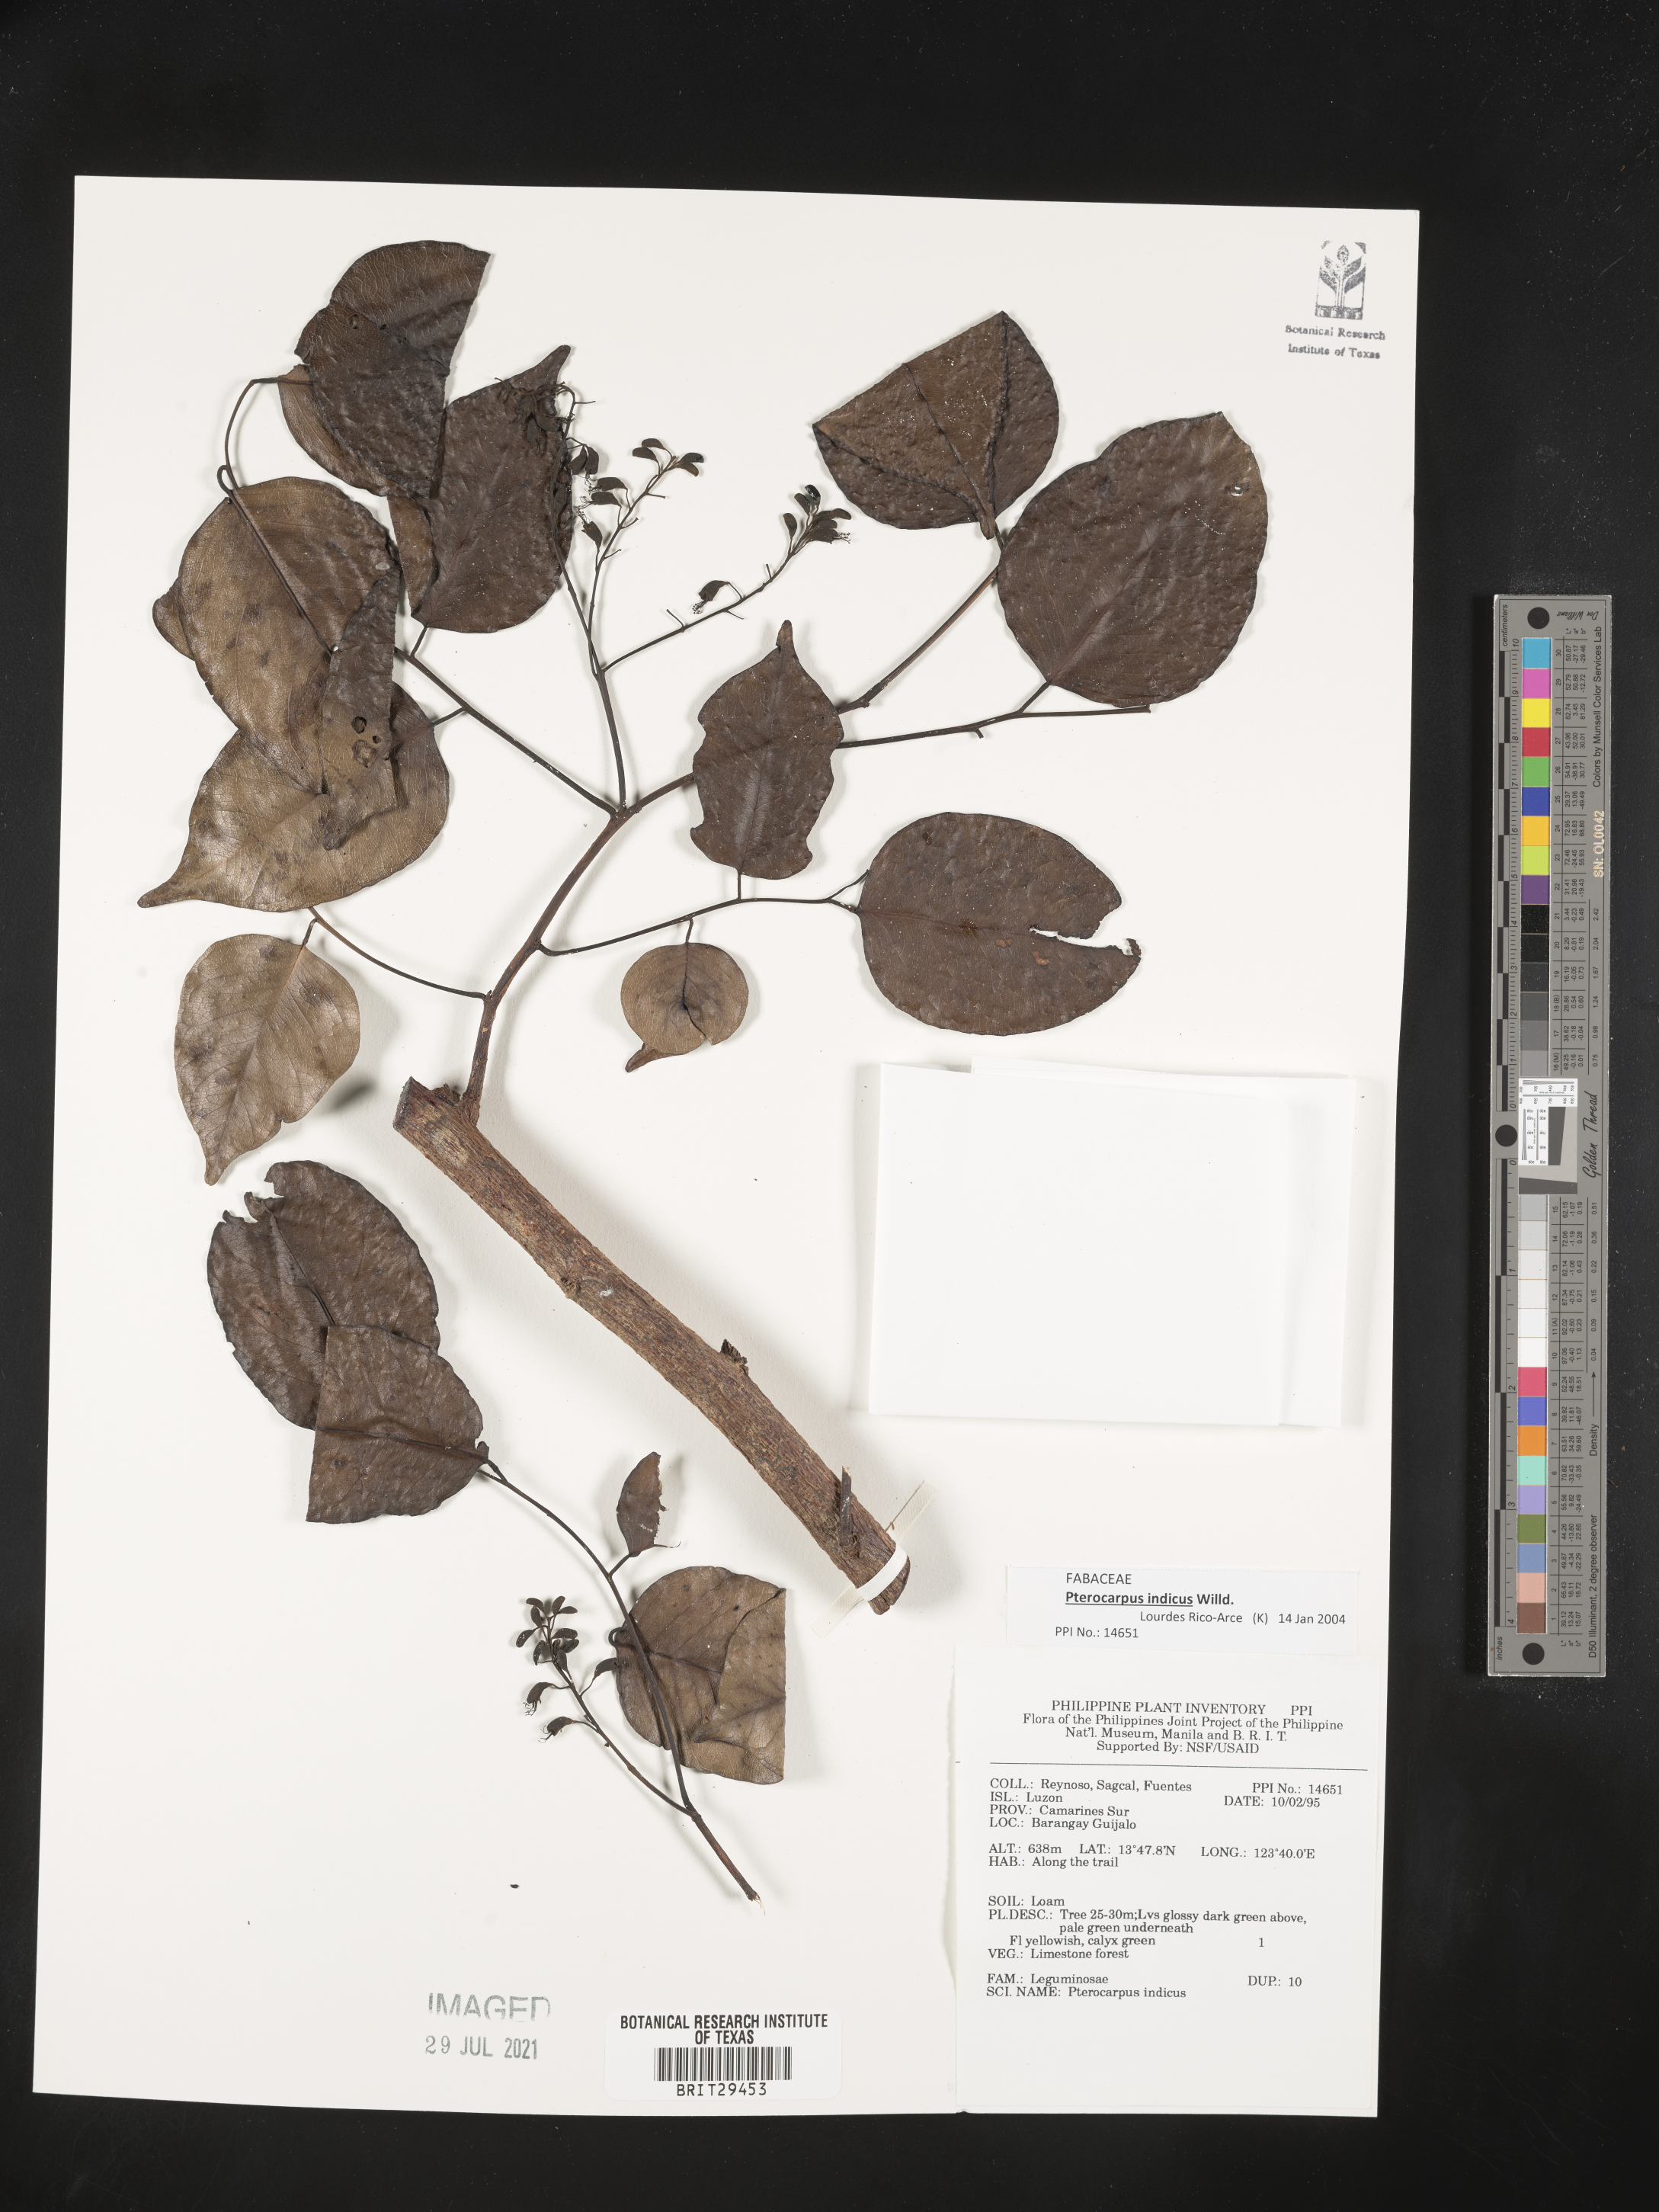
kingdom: Plantae
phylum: Tracheophyta
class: Magnoliopsida
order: Fabales
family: Fabaceae
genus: Pterocarpus
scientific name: Pterocarpus indicus
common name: Burmese rosewood
